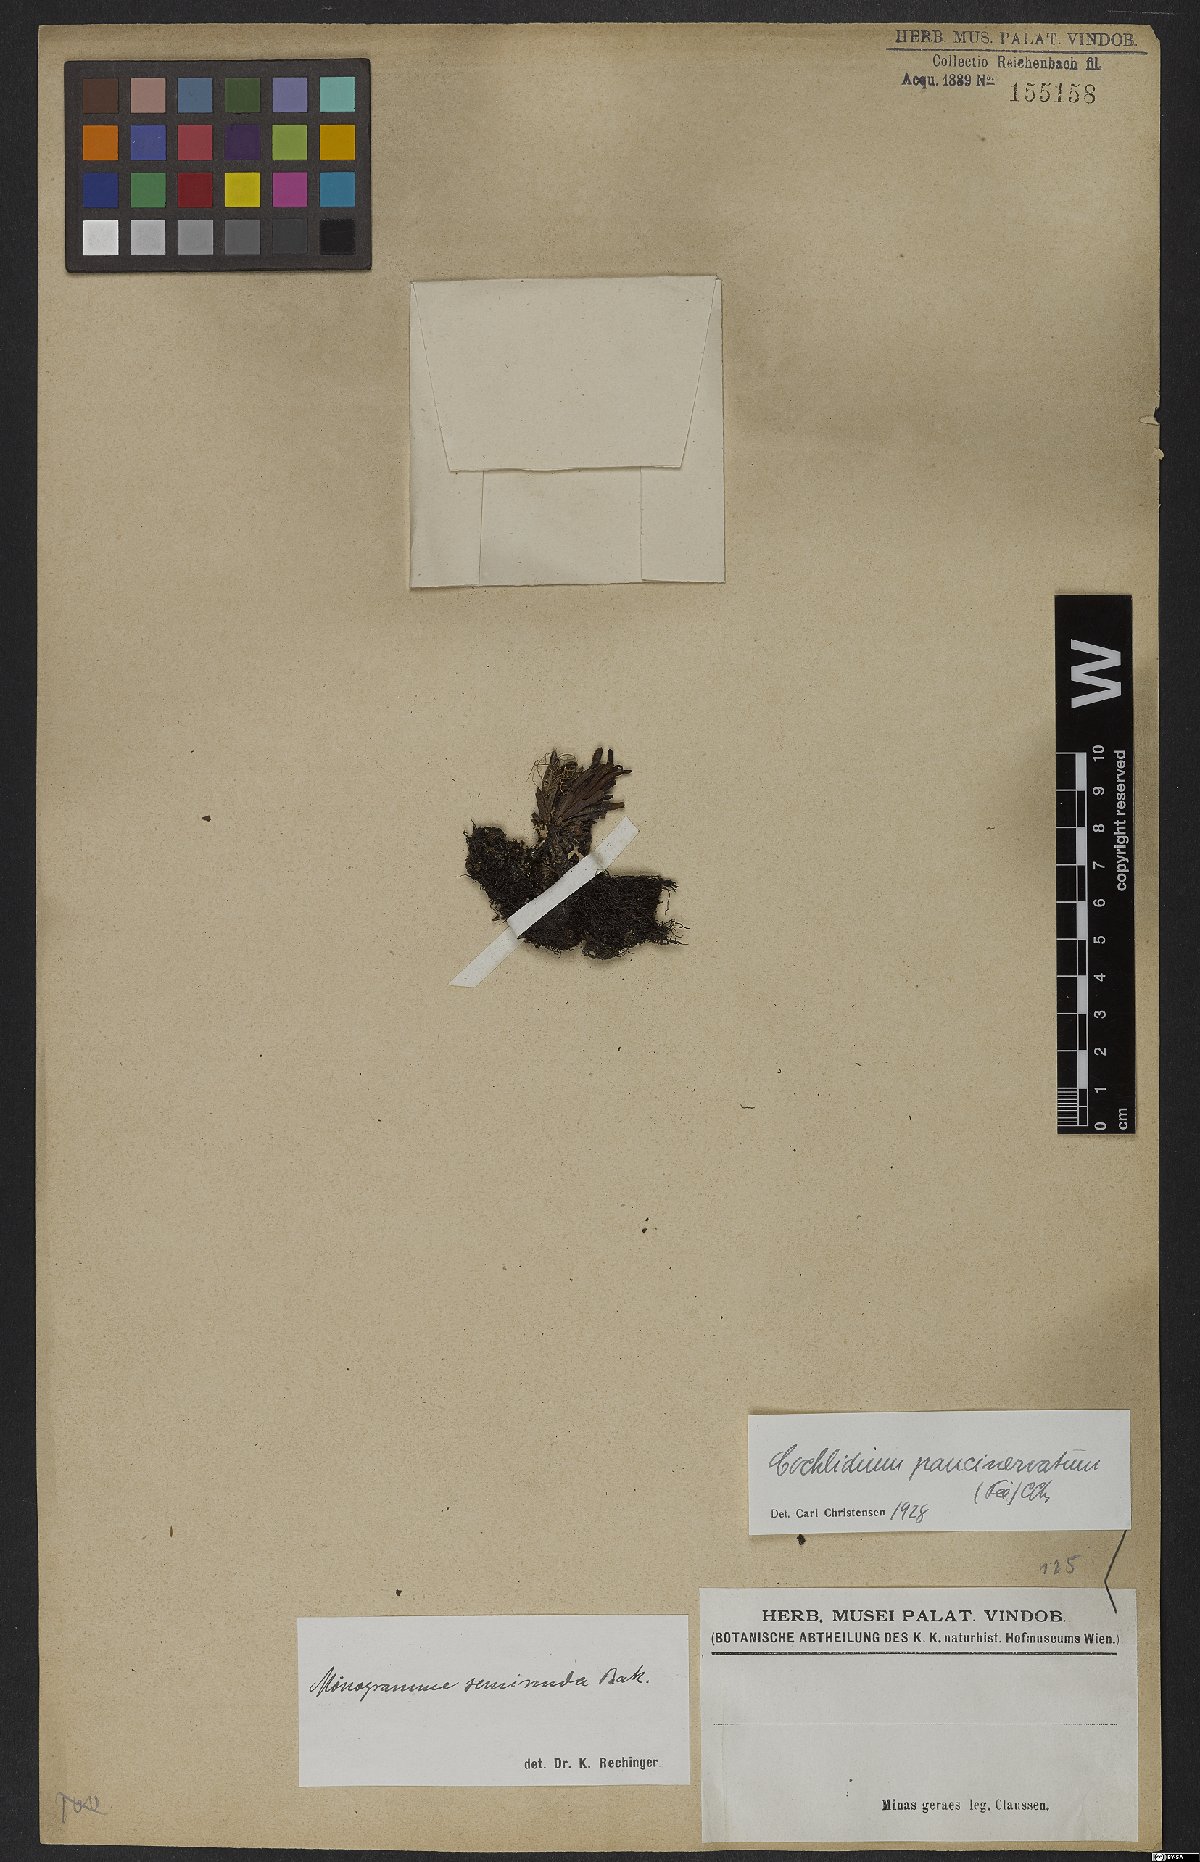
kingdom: Plantae
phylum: Tracheophyta
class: Polypodiopsida
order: Polypodiales
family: Polypodiaceae
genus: Cochlidium
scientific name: Cochlidium punctatum
